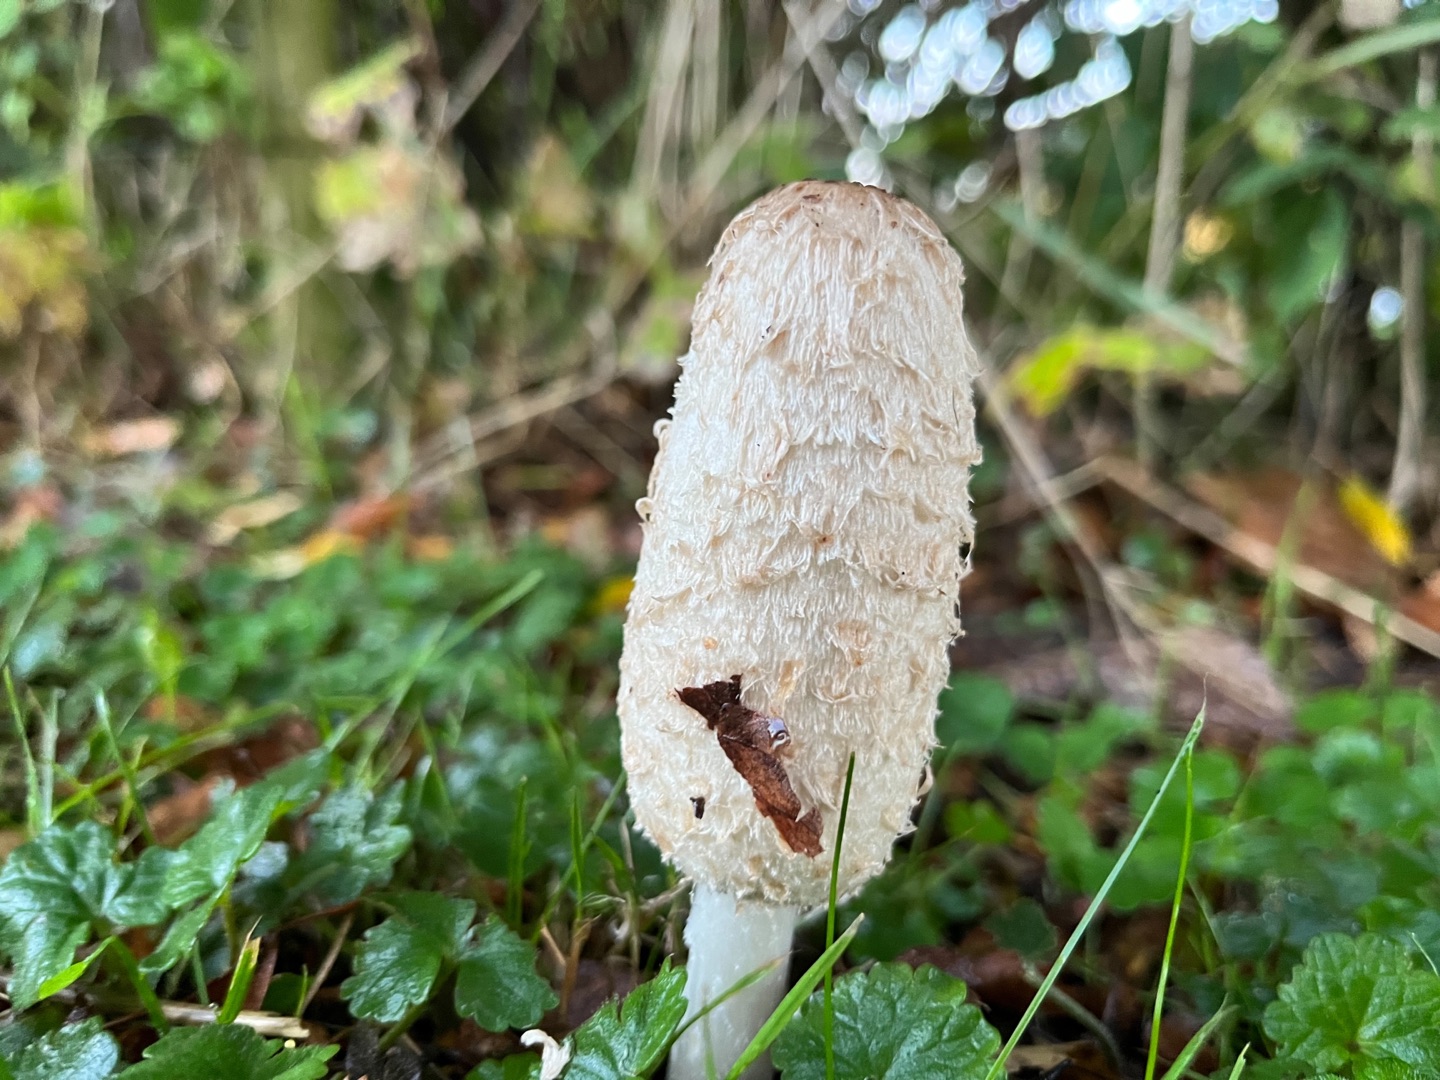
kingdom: Fungi
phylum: Basidiomycota
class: Agaricomycetes
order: Agaricales
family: Agaricaceae
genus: Coprinus
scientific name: Coprinus comatus
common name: Stor parykhat
